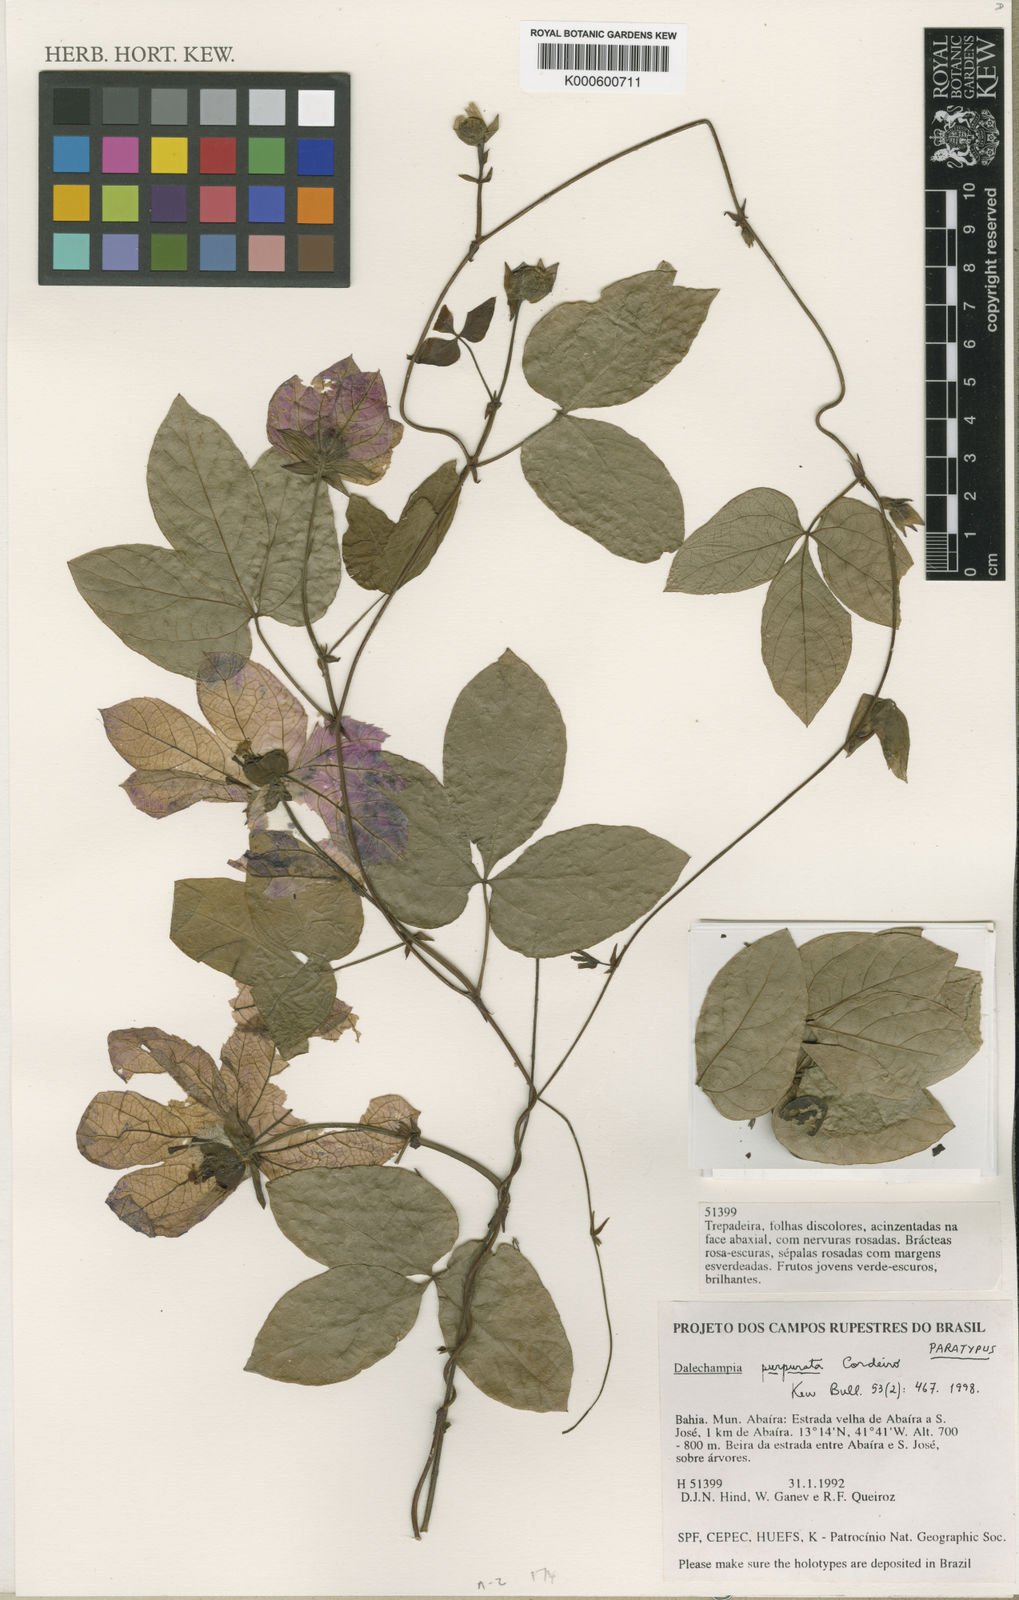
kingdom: Plantae
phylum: Tracheophyta
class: Magnoliopsida
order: Malpighiales
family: Euphorbiaceae
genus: Dalechampia
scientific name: Dalechampia purpurata
